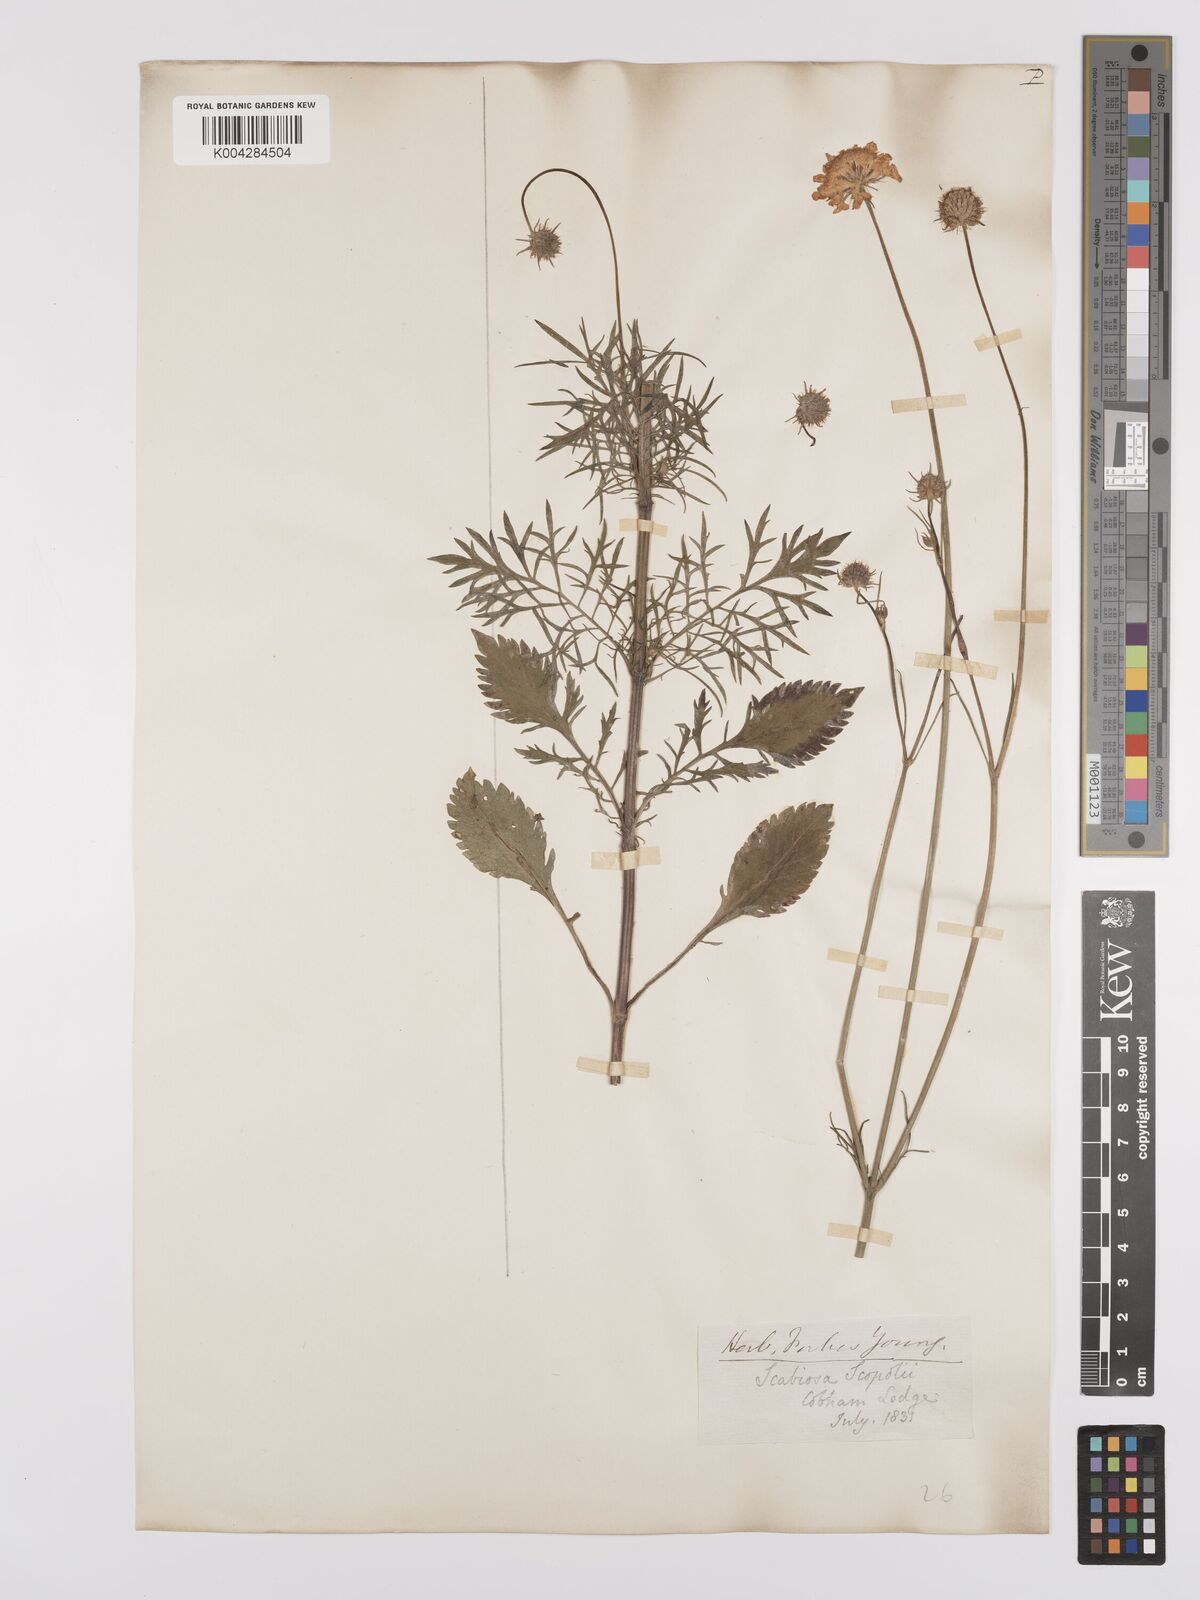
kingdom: Plantae
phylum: Tracheophyta
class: Magnoliopsida
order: Dipsacales
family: Caprifoliaceae
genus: Scabiosa
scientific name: Scabiosa ochroleuca
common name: Cream pincushions
